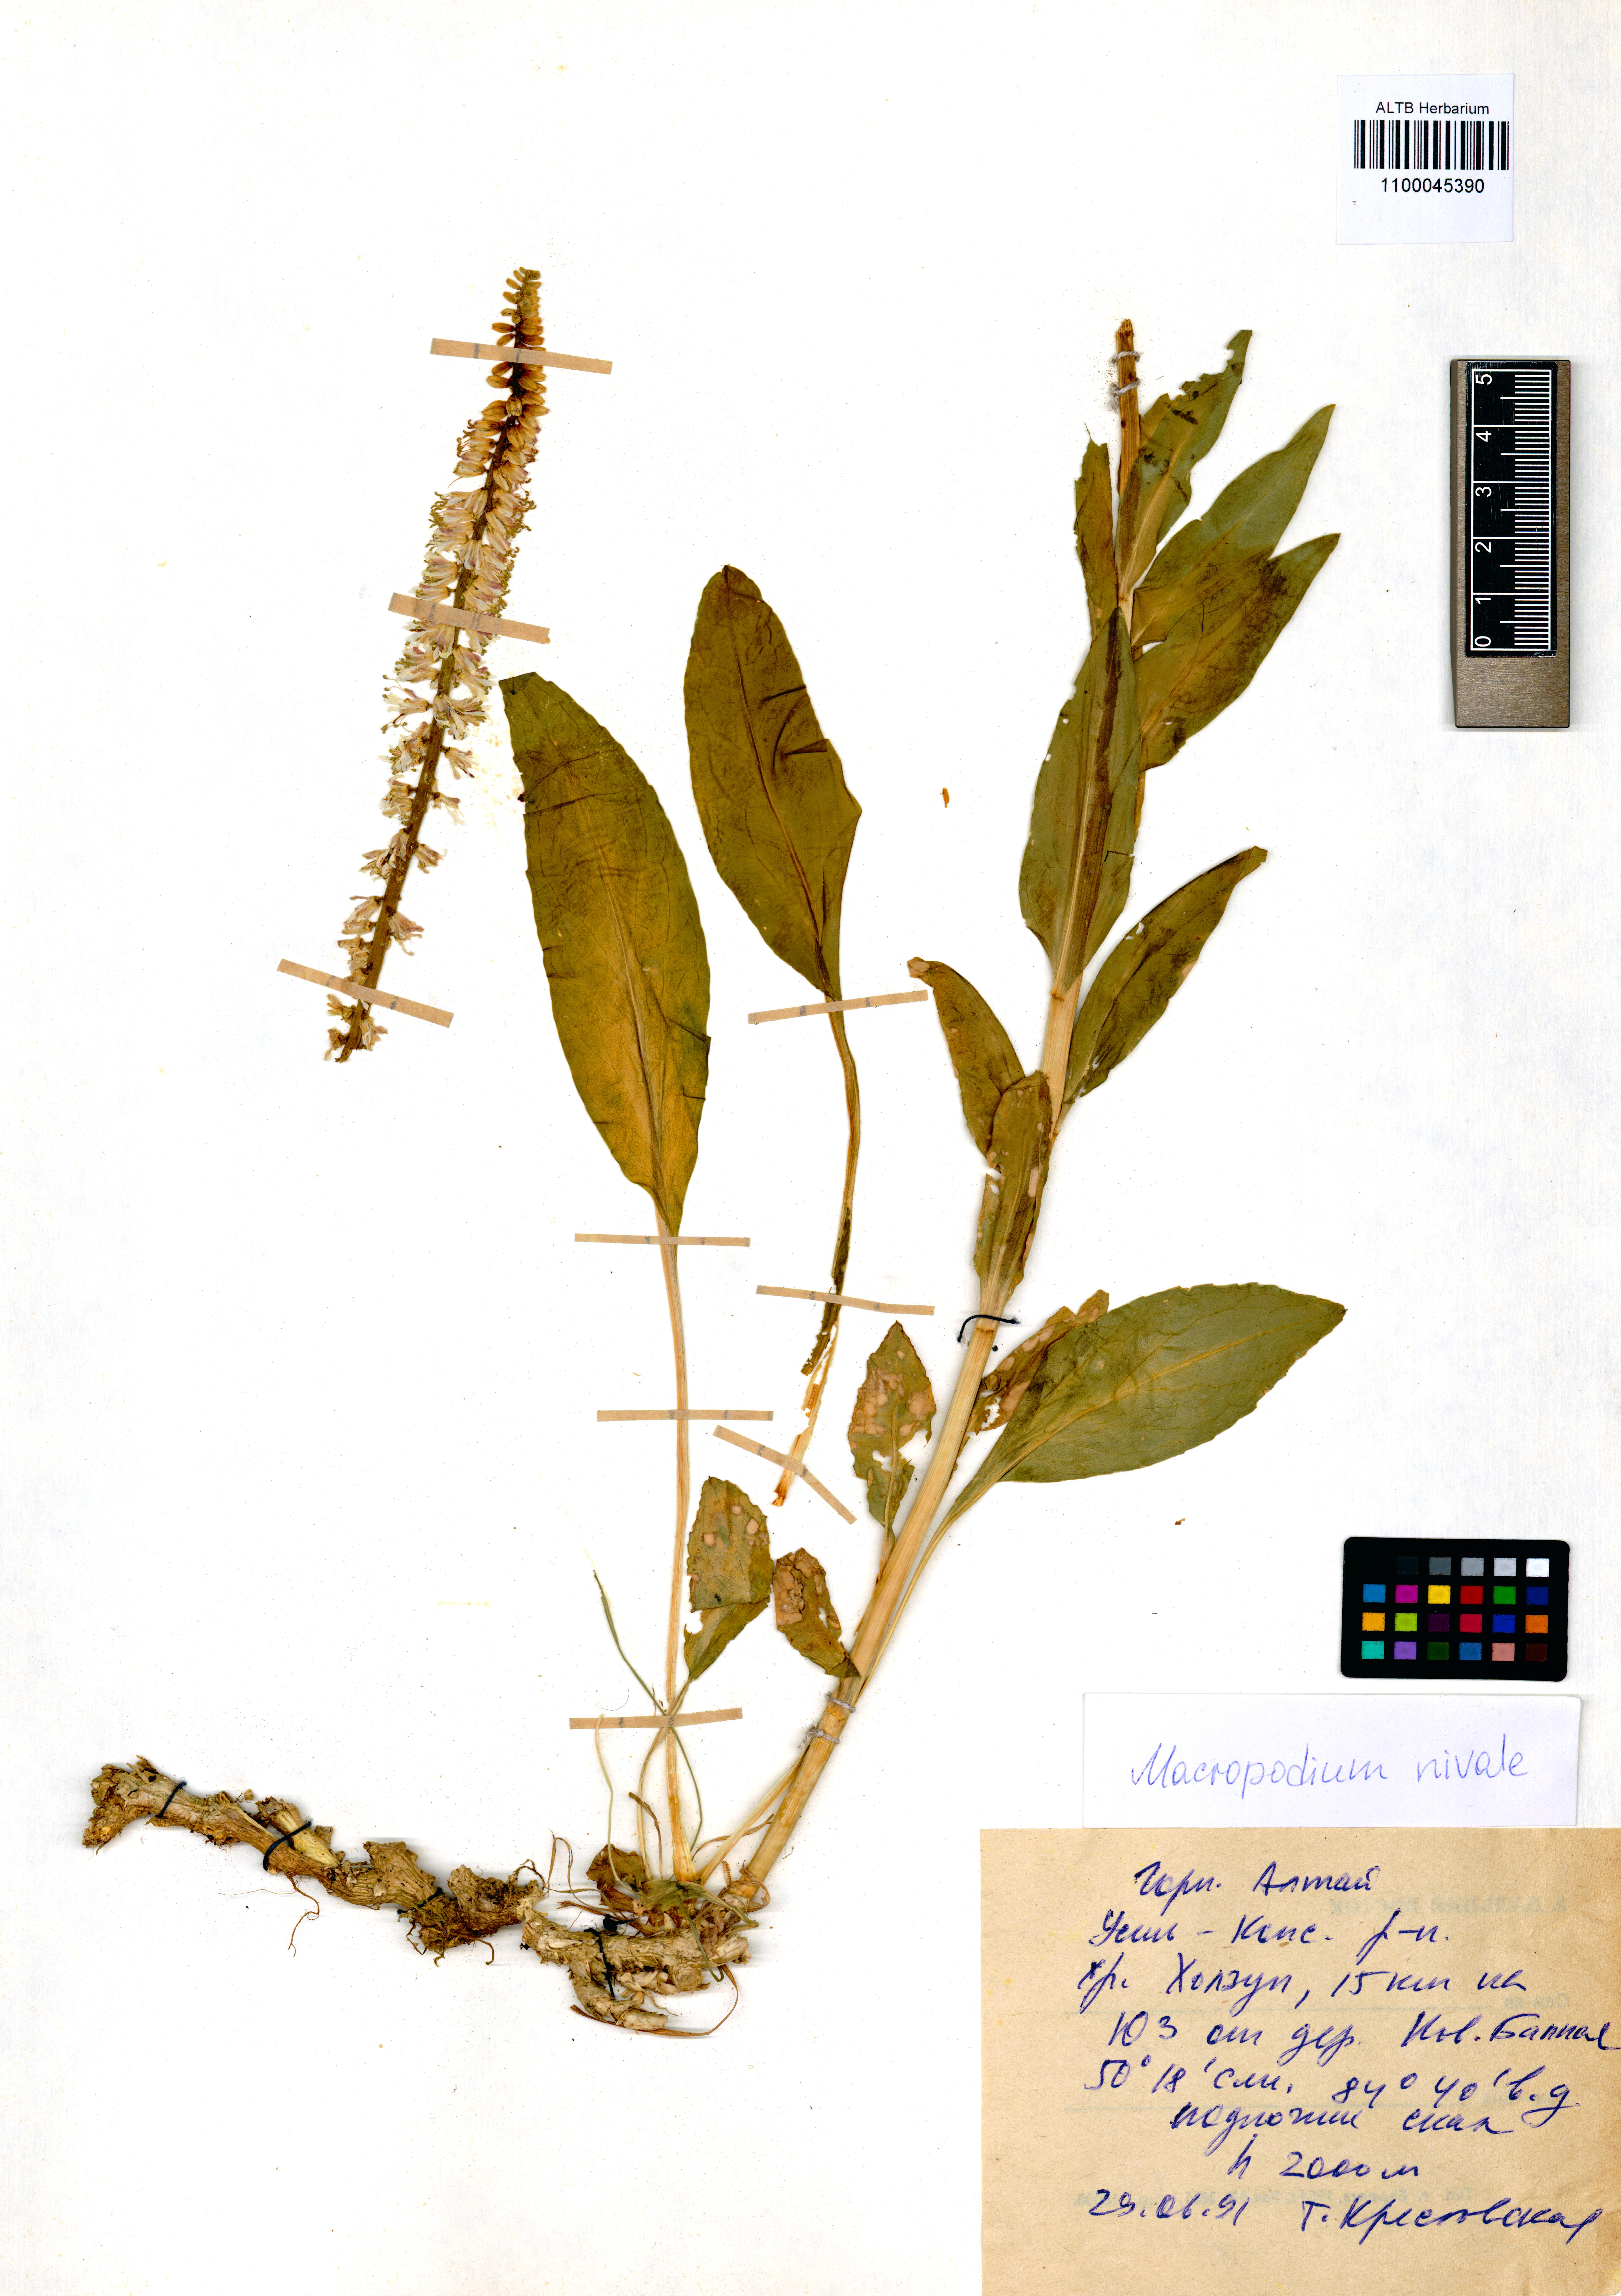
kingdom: Plantae
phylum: Tracheophyta
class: Magnoliopsida
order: Brassicales
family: Brassicaceae
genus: Macropodium
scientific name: Macropodium nivale
